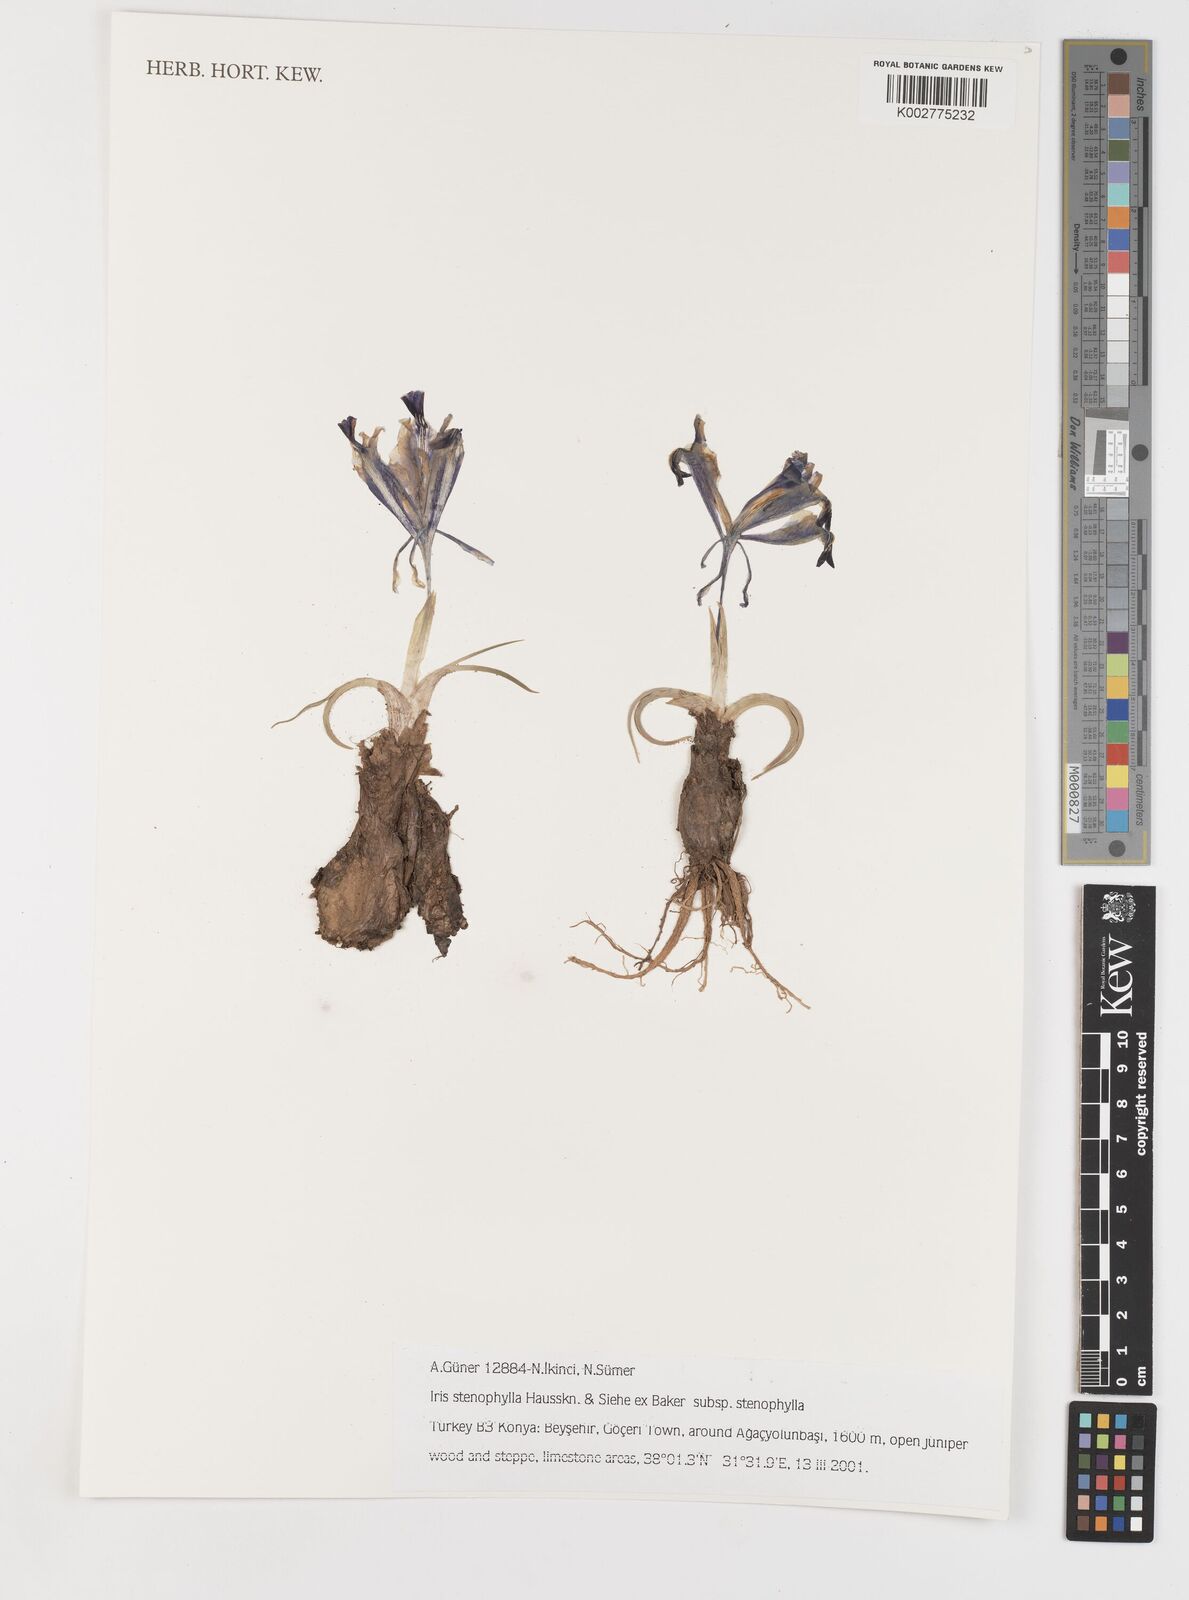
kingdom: Plantae
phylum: Tracheophyta
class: Liliopsida
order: Asparagales
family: Iridaceae
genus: Iris
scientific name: Iris stenophylla
